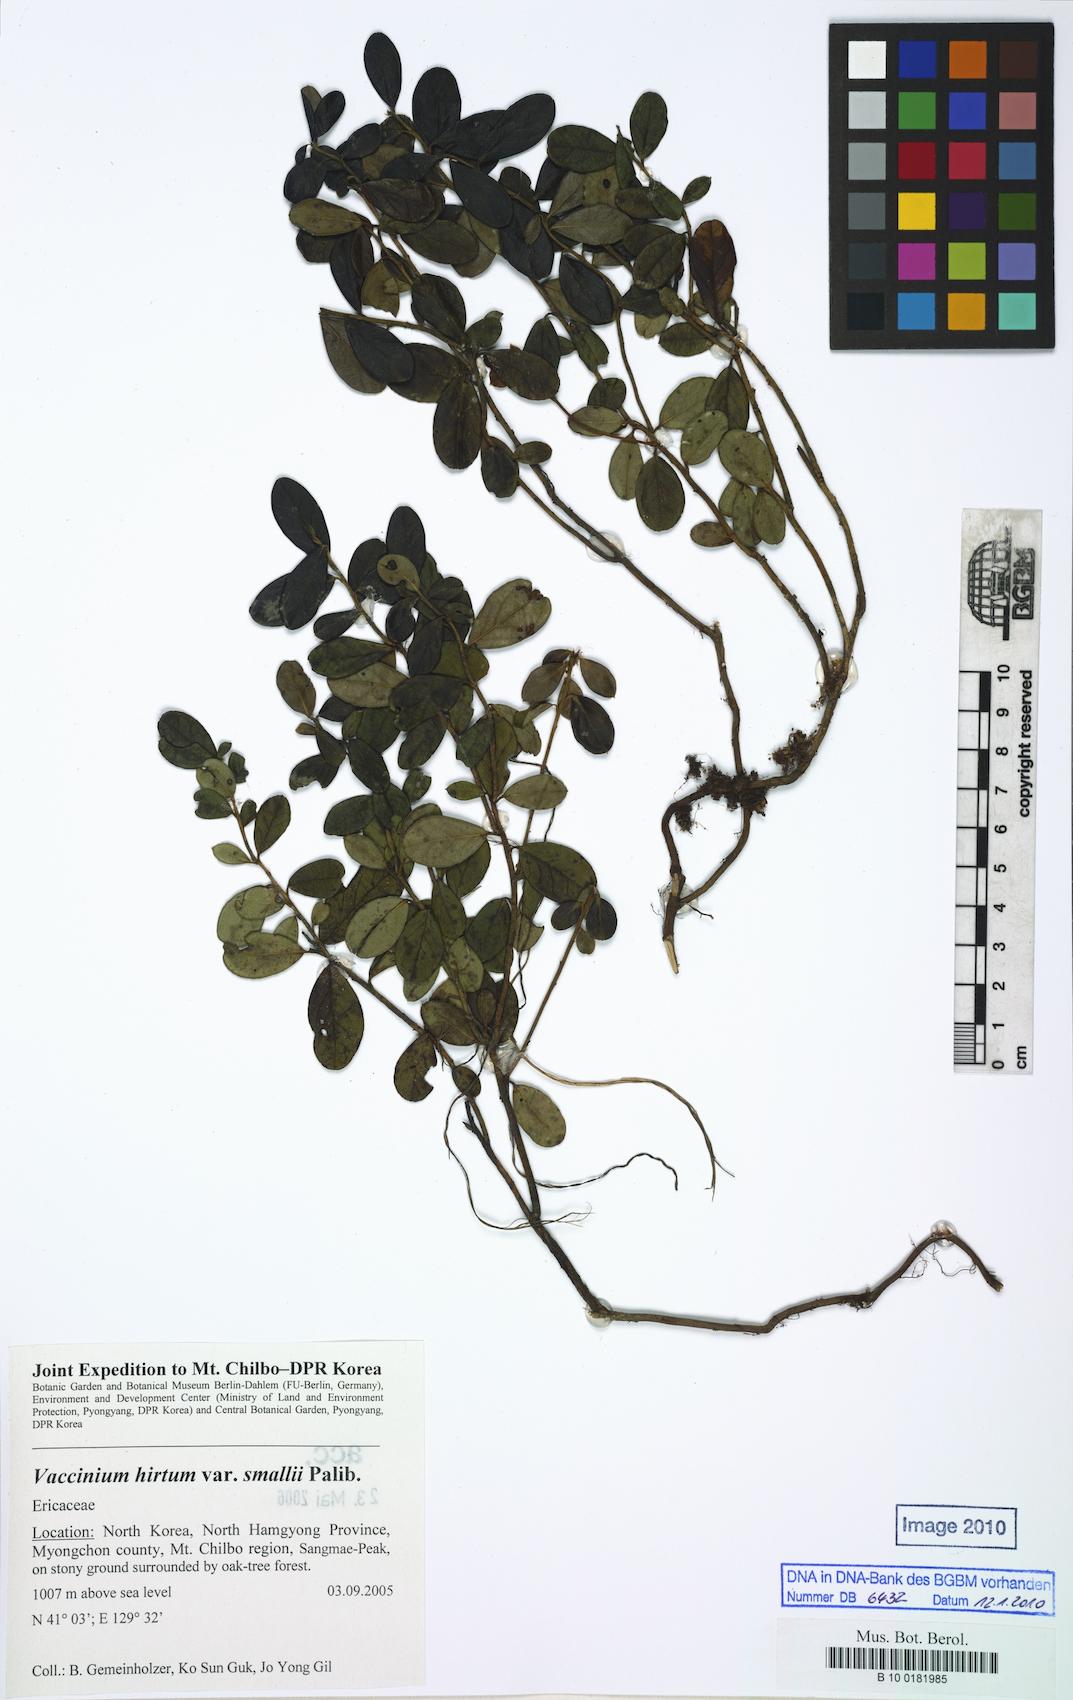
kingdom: Plantae
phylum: Tracheophyta
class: Magnoliopsida
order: Ericales
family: Ericaceae
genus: Vaccinium
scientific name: Vaccinium hirtum
